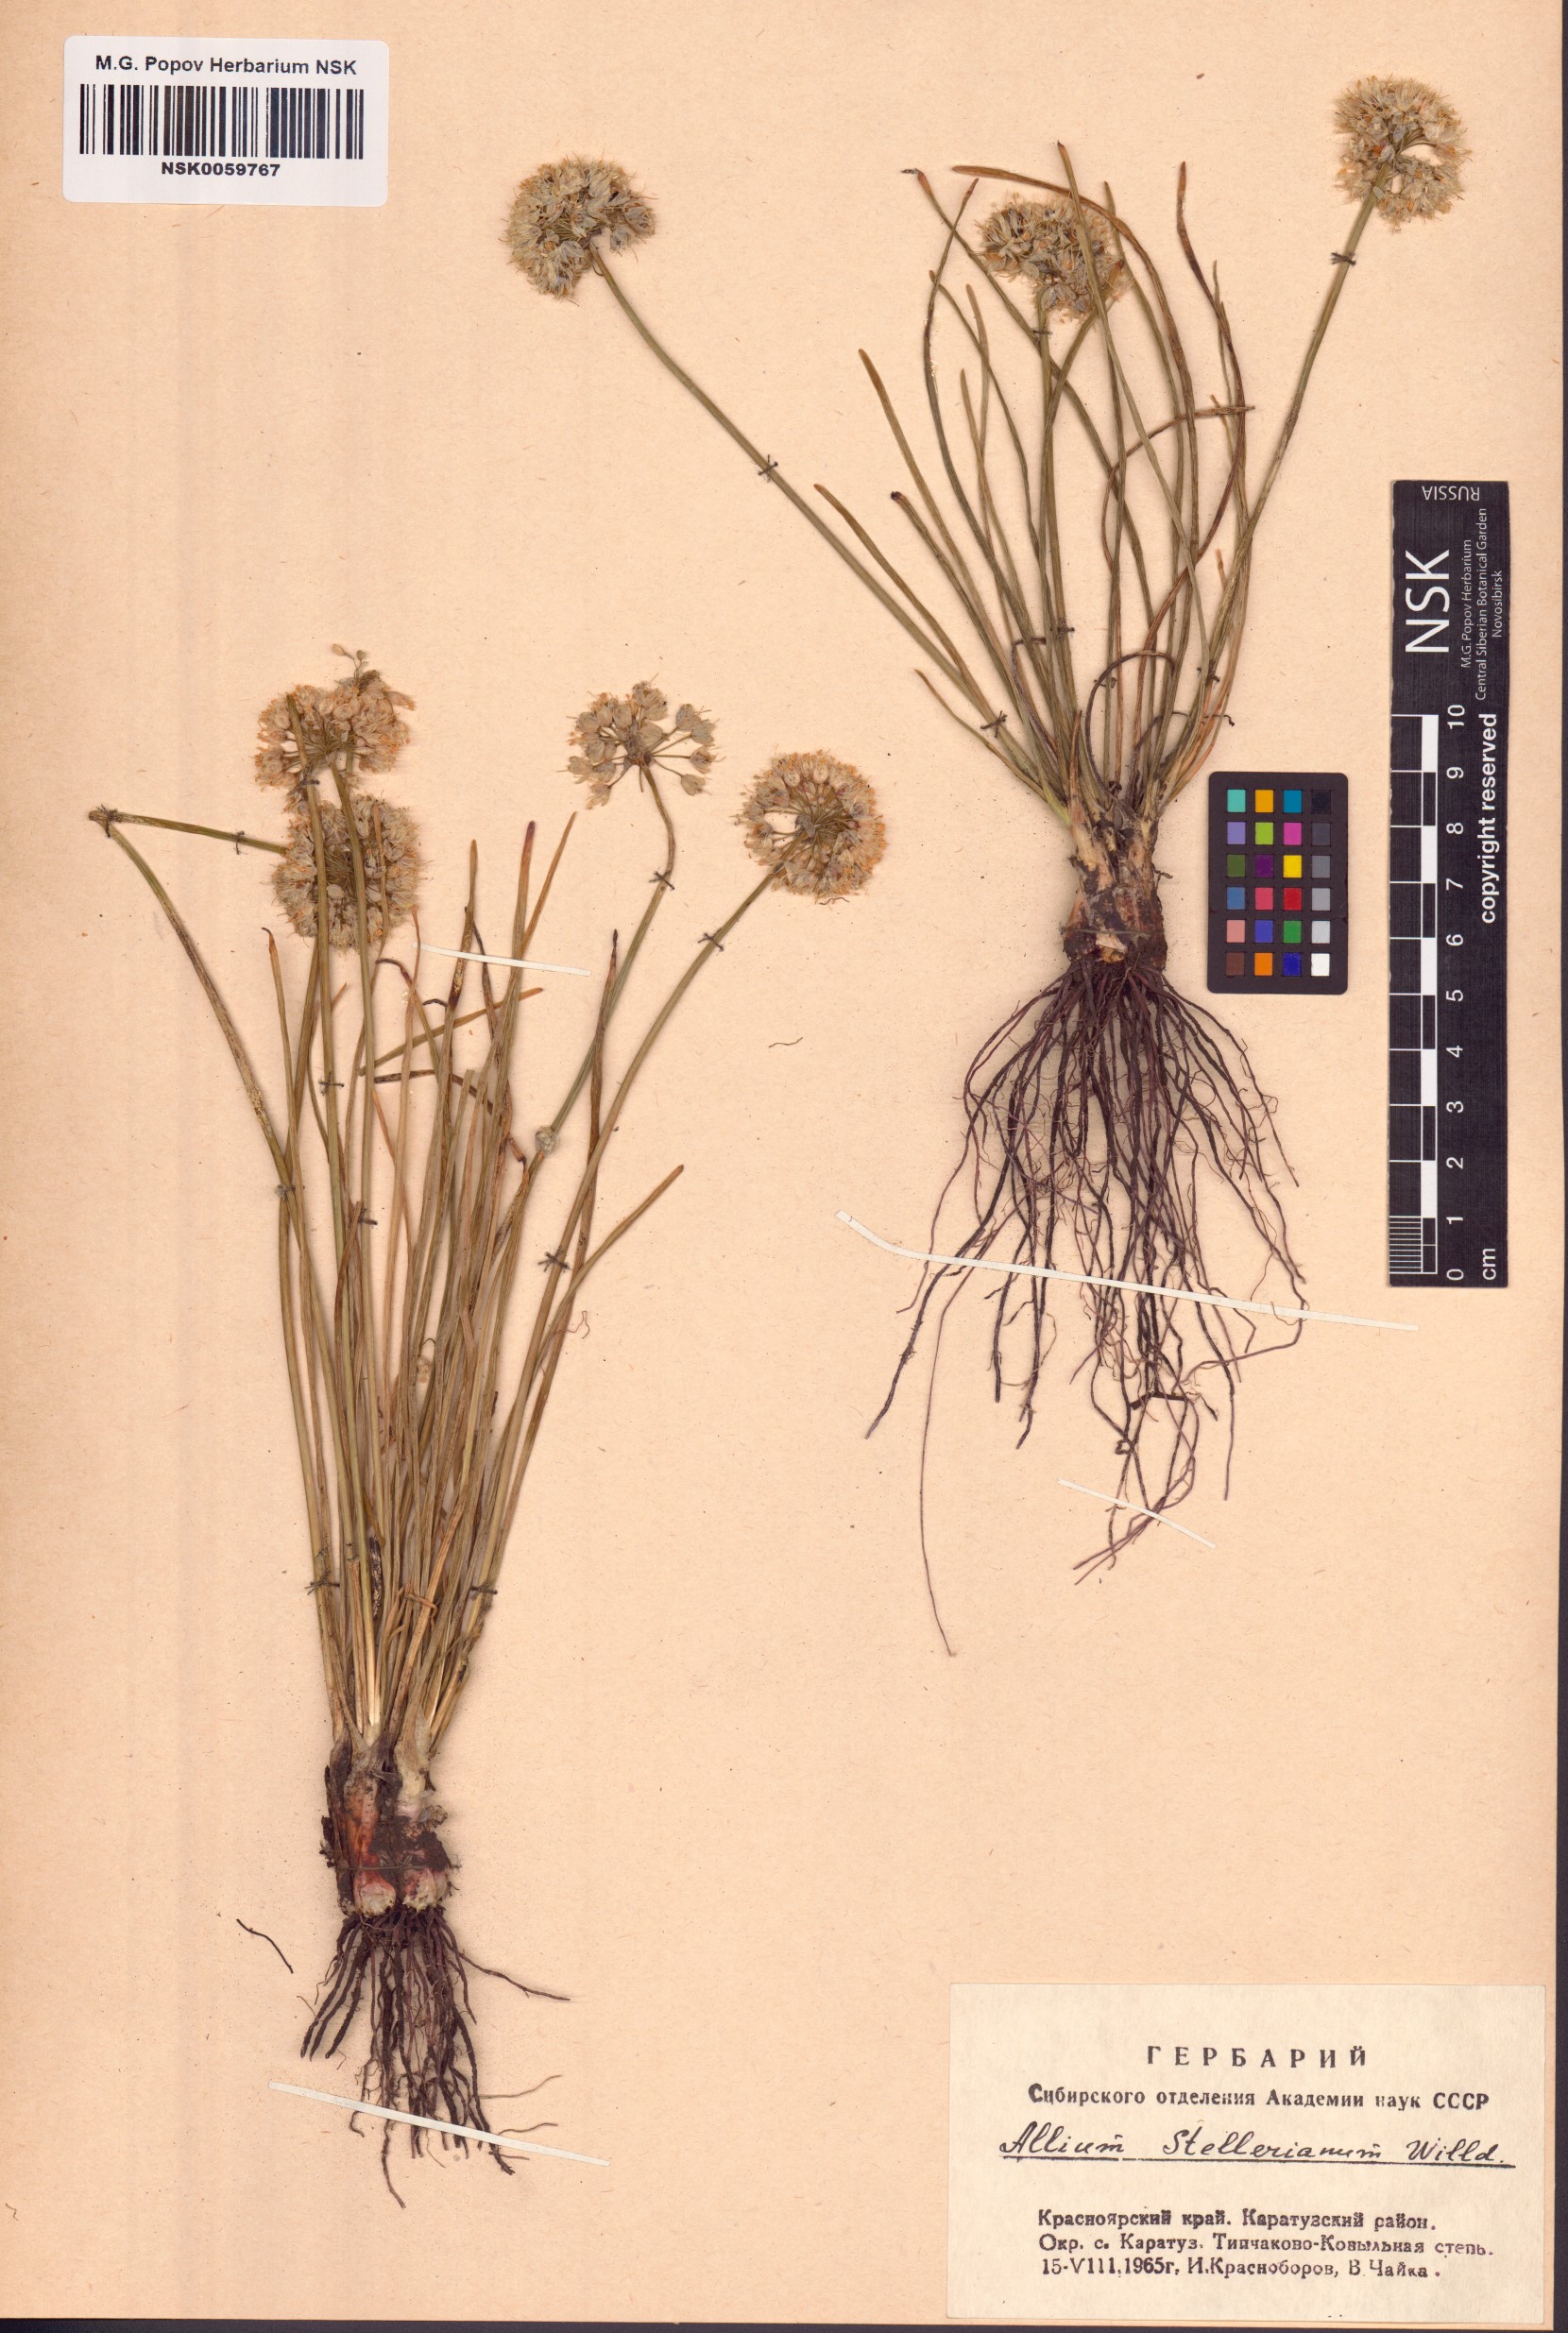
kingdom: Plantae
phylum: Tracheophyta
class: Liliopsida
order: Asparagales
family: Amaryllidaceae
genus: Allium
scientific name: Allium stellerianum
